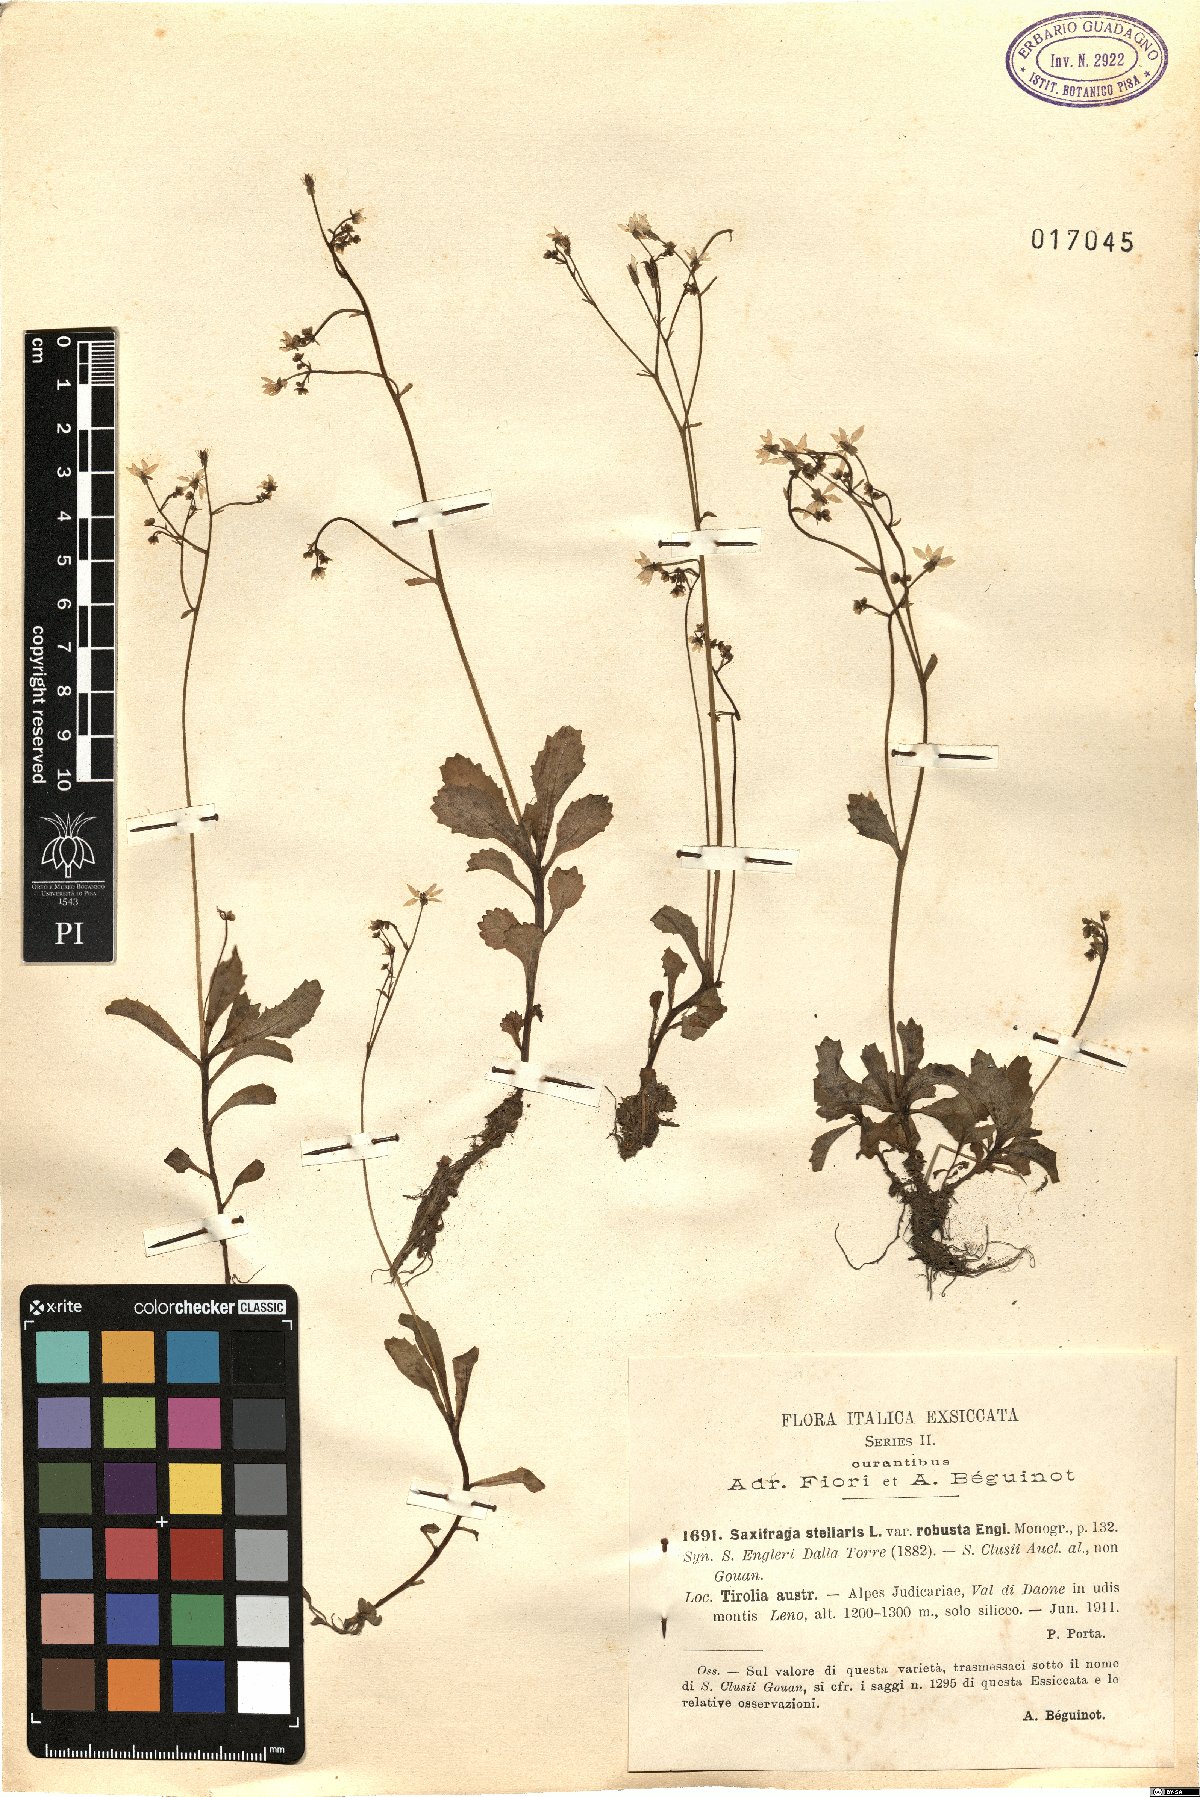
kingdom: Plantae
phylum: Tracheophyta
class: Magnoliopsida
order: Saxifragales
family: Saxifragaceae
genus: Micranthes
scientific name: Micranthes stellaris
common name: Starry saxifrage
